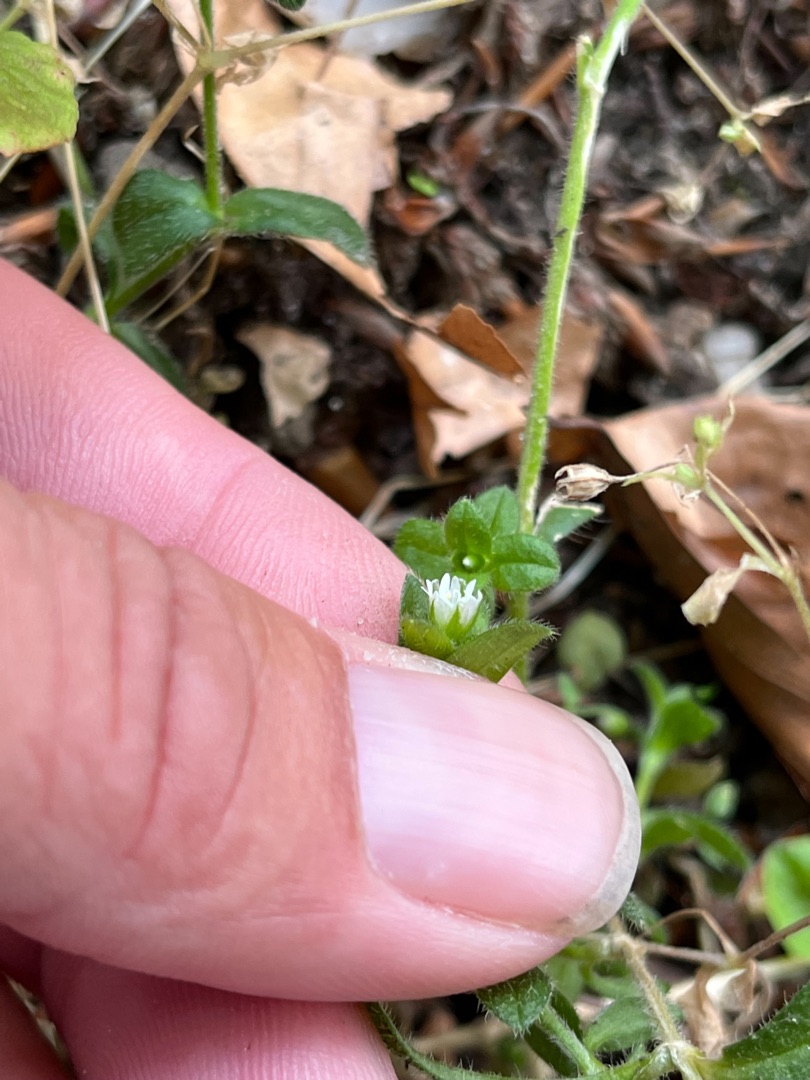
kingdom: Plantae
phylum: Tracheophyta
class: Magnoliopsida
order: Caryophyllales
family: Caryophyllaceae
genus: Cerastium
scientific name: Cerastium fontanum
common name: Almindelig hønsetarm
